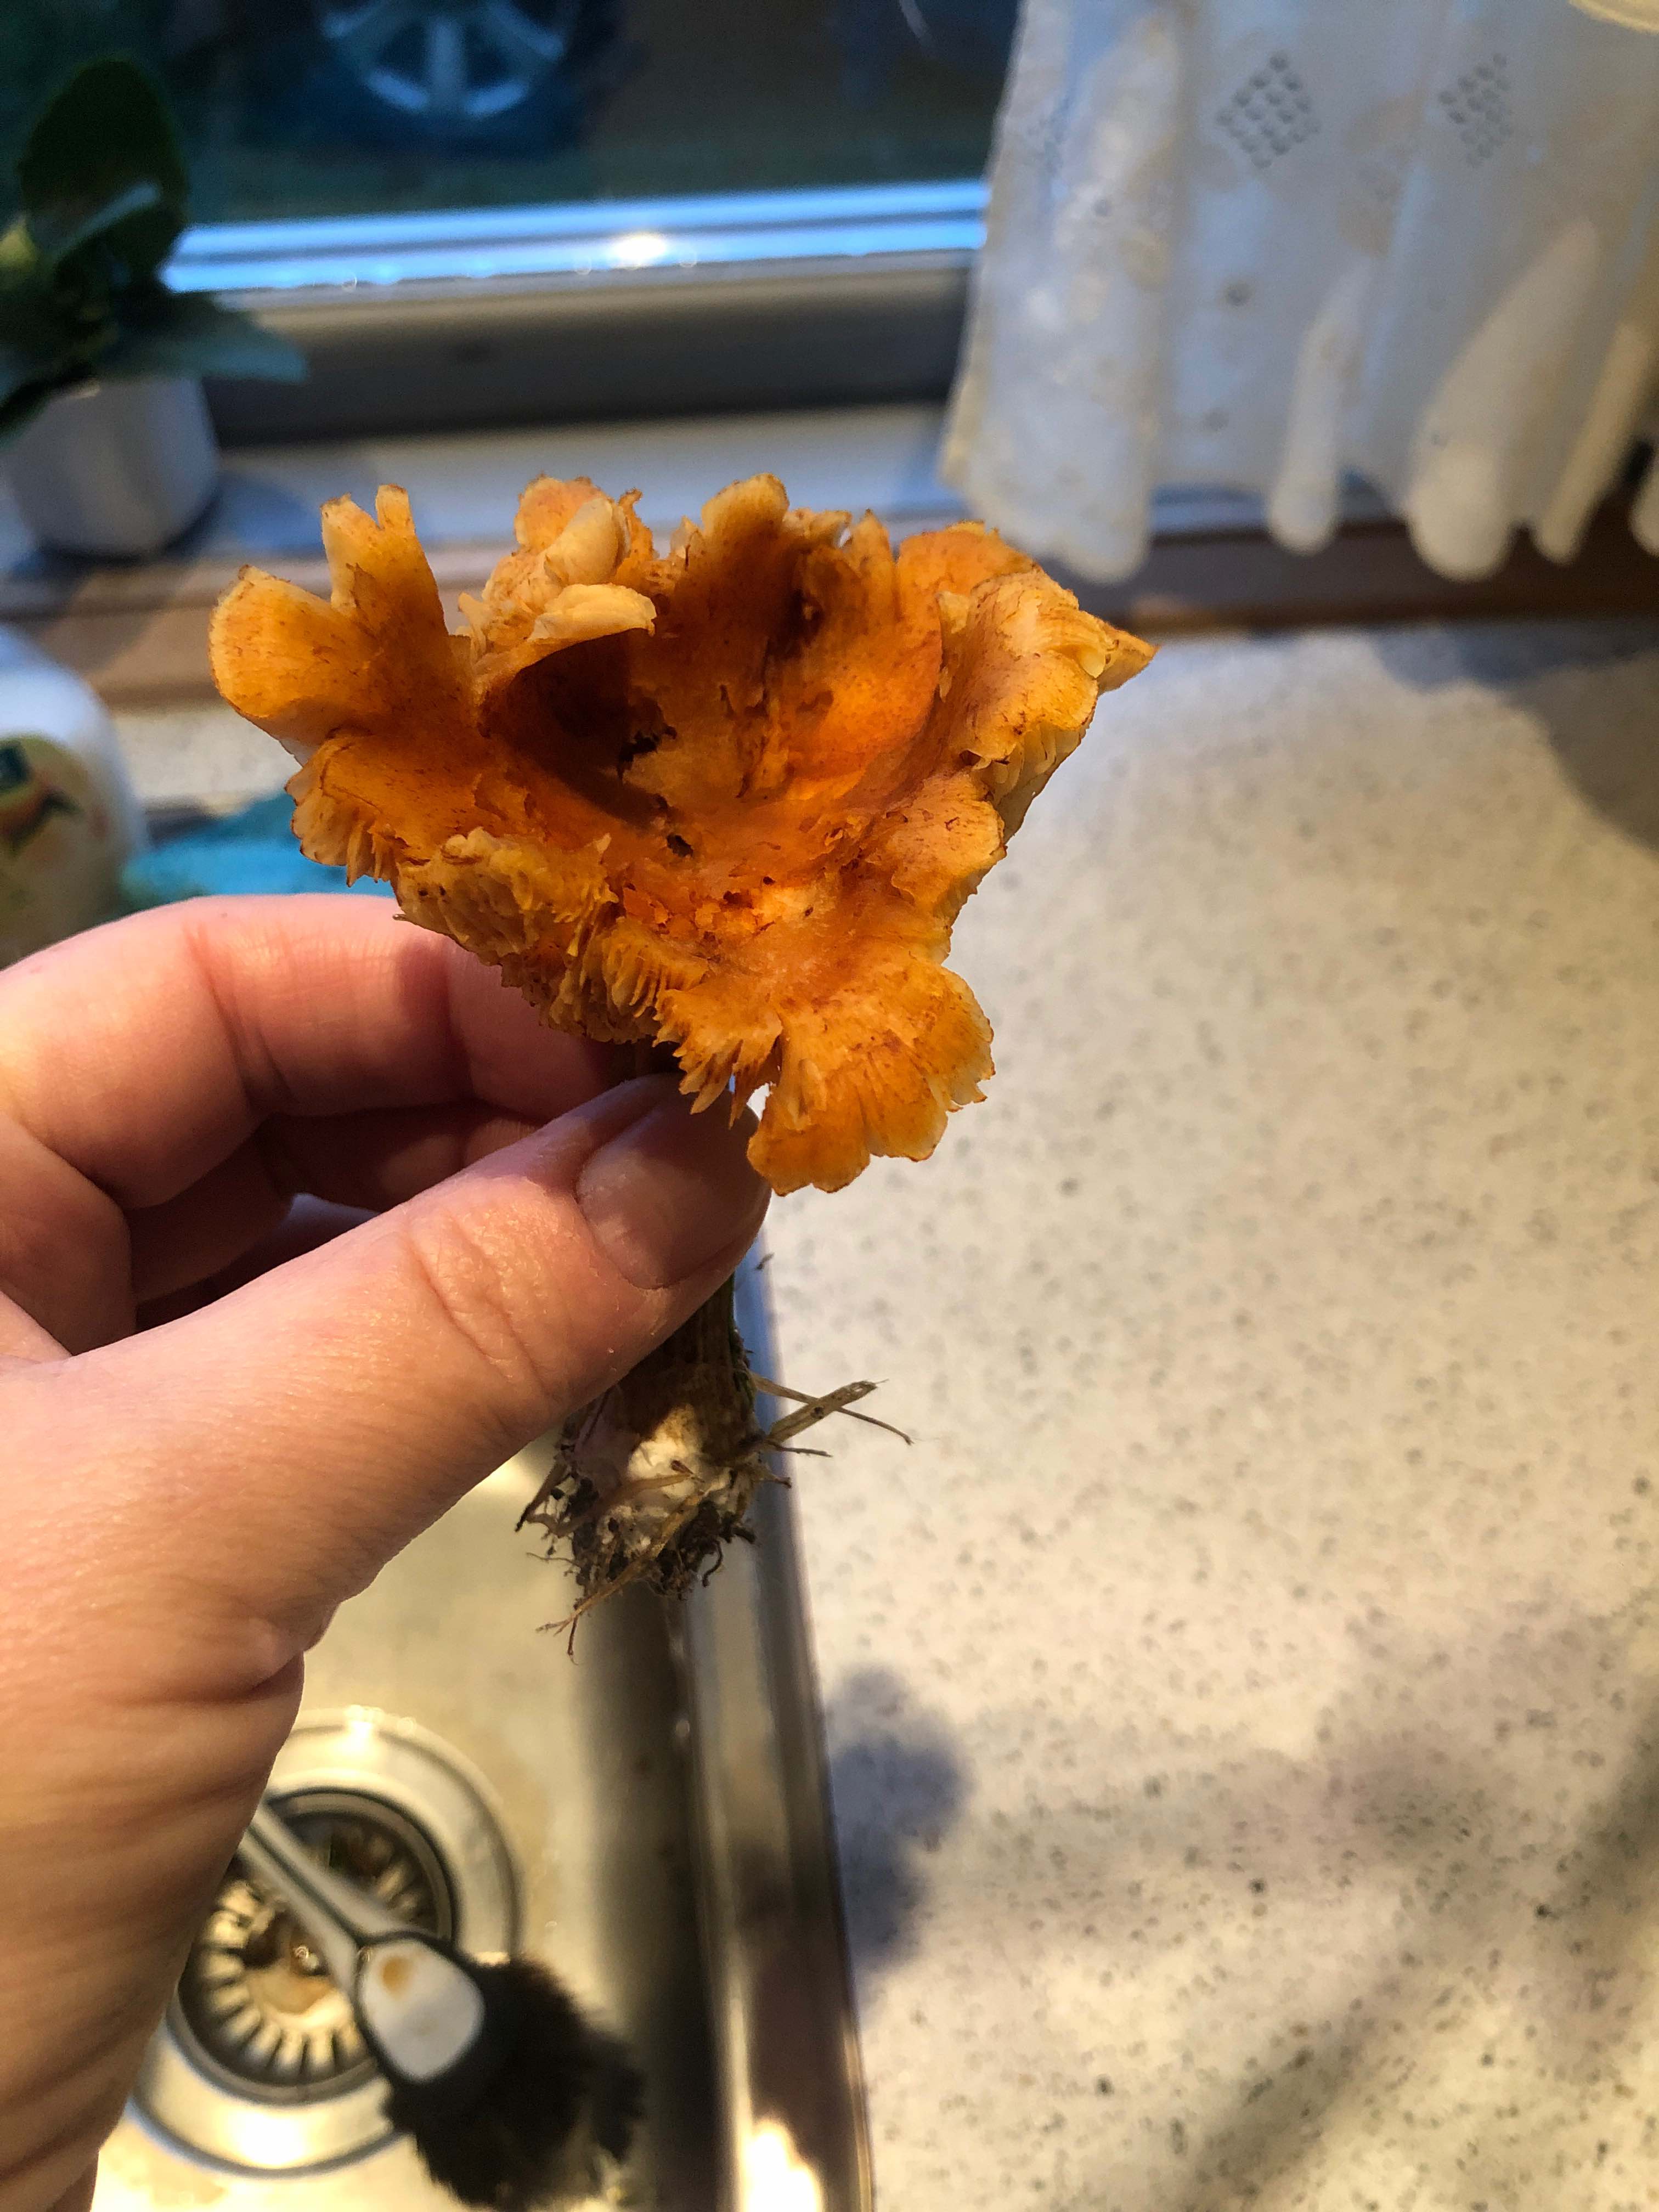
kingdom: Fungi
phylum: Basidiomycota
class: Agaricomycetes
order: Agaricales
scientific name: Agaricales
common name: champignonordenen
